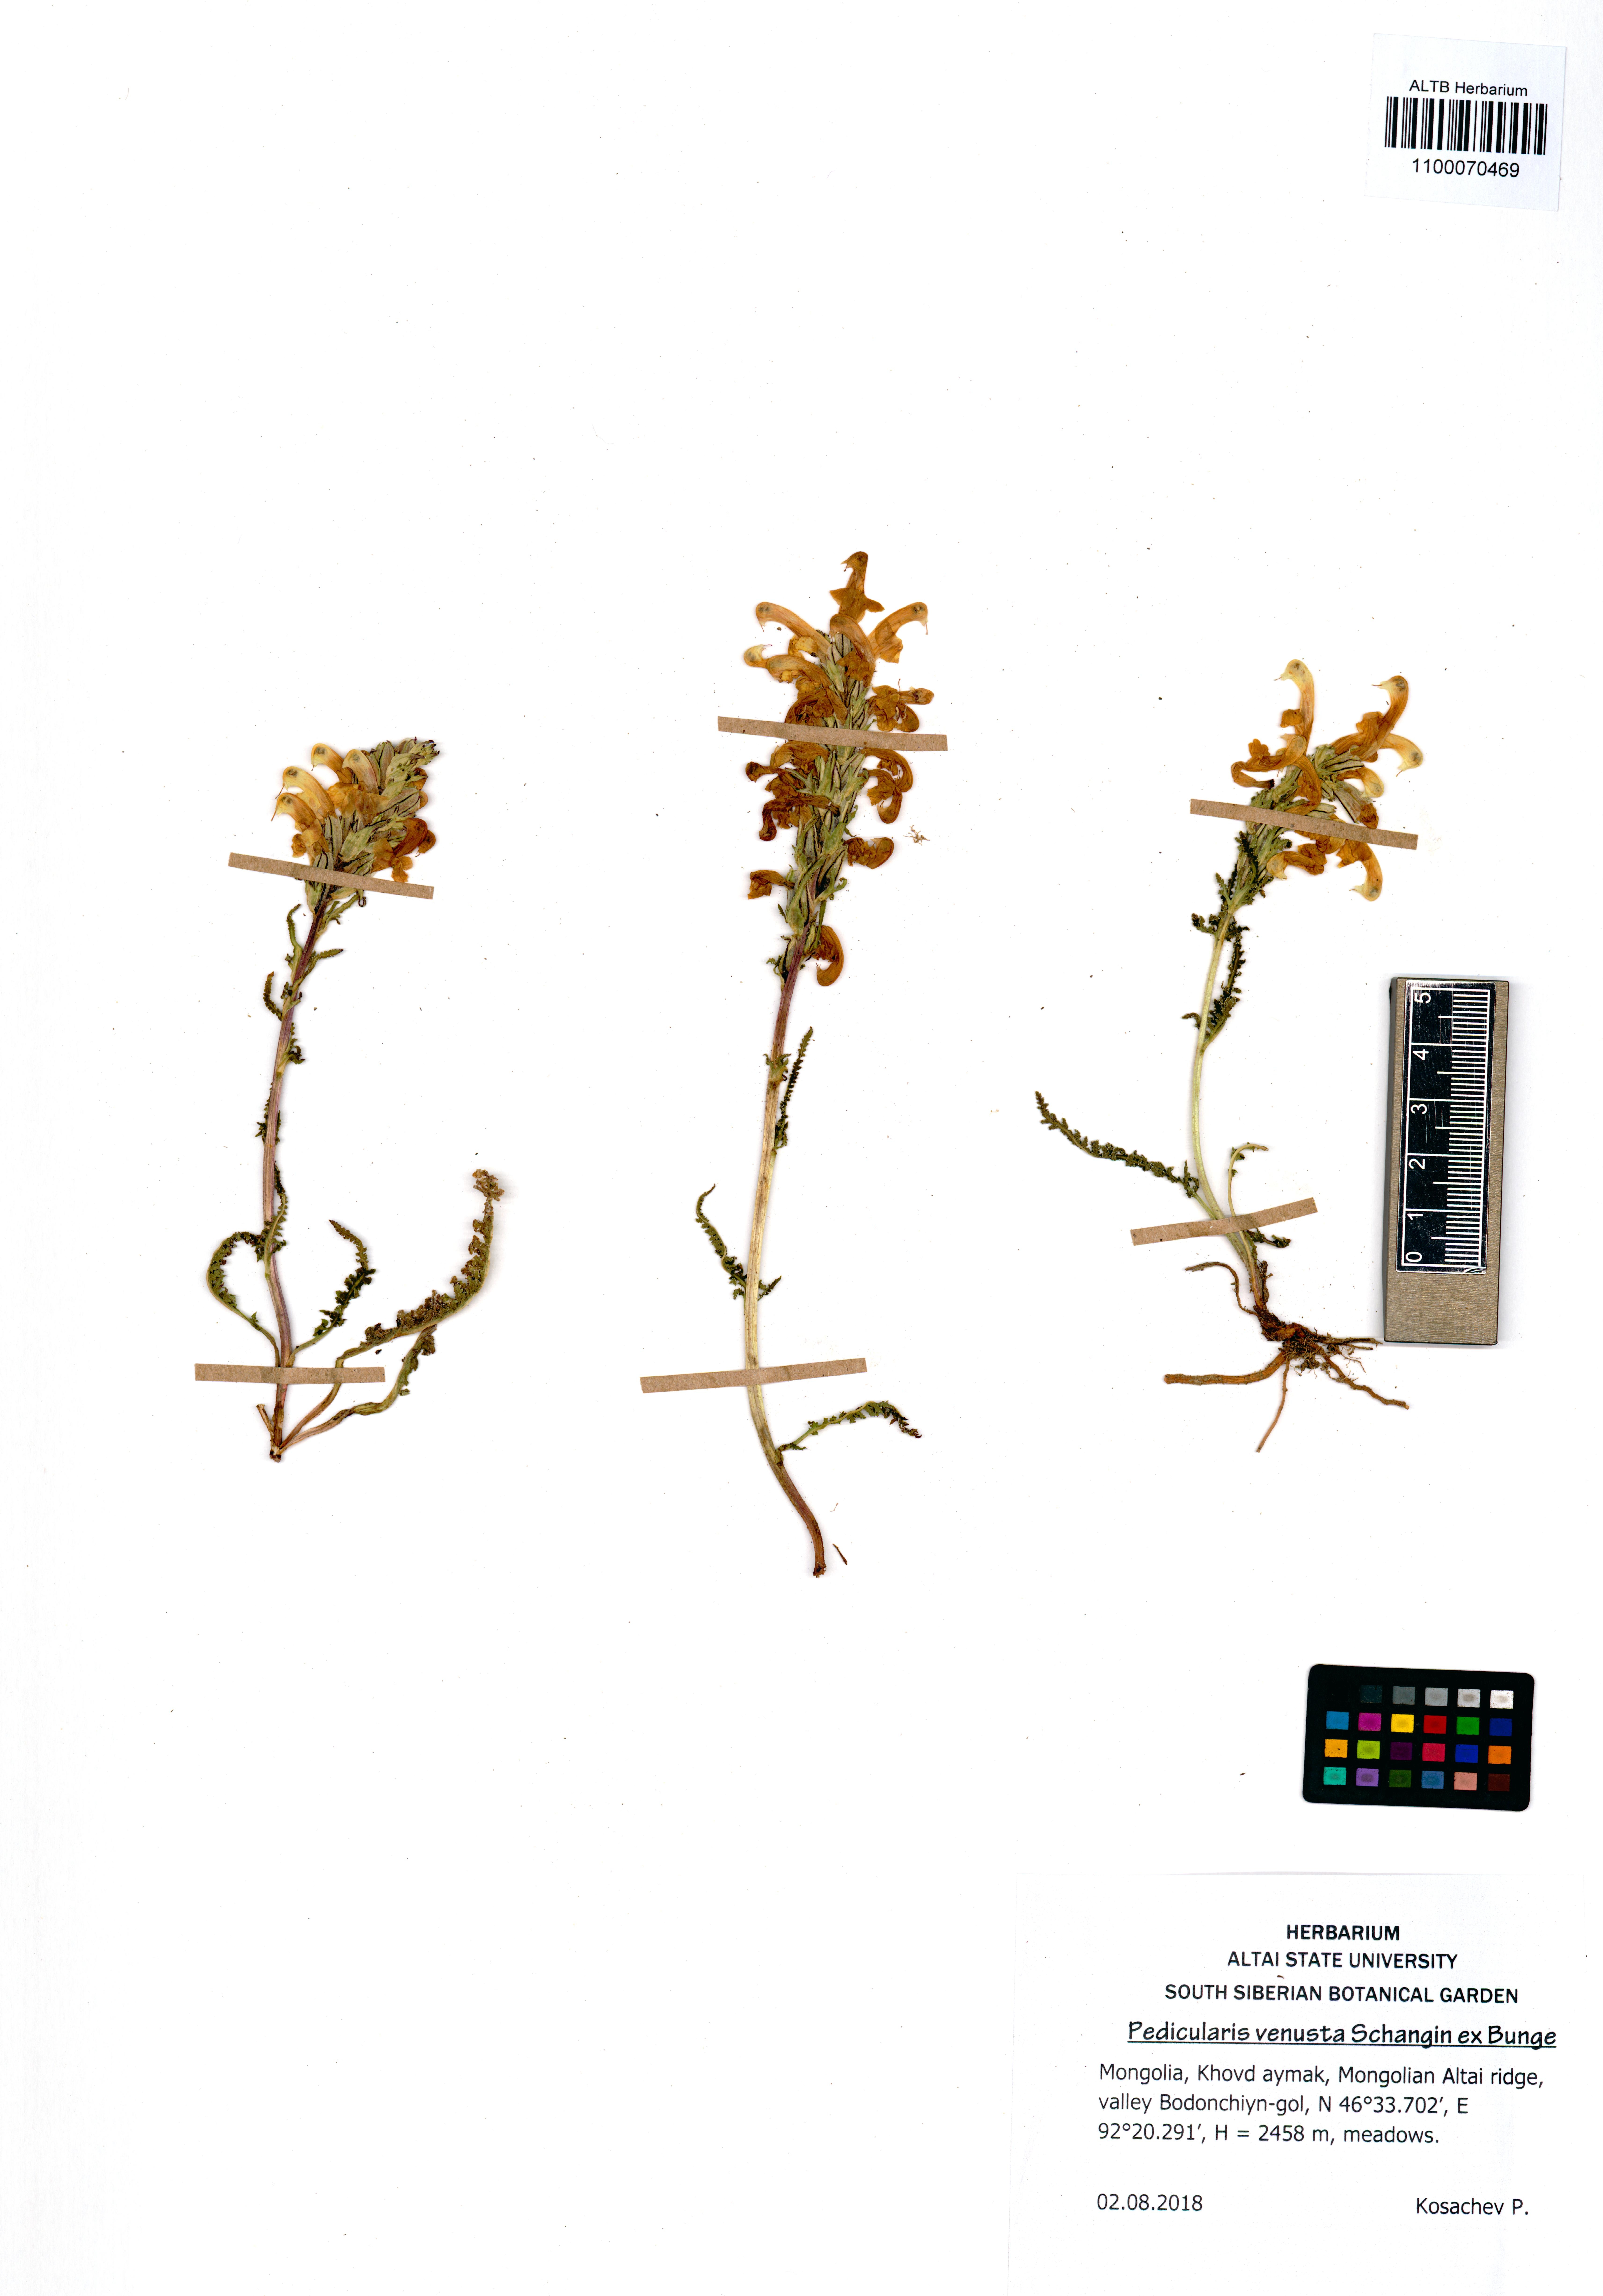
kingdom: Plantae
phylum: Tracheophyta
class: Magnoliopsida
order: Lamiales
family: Orobanchaceae
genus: Pedicularis
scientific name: Pedicularis venusta
